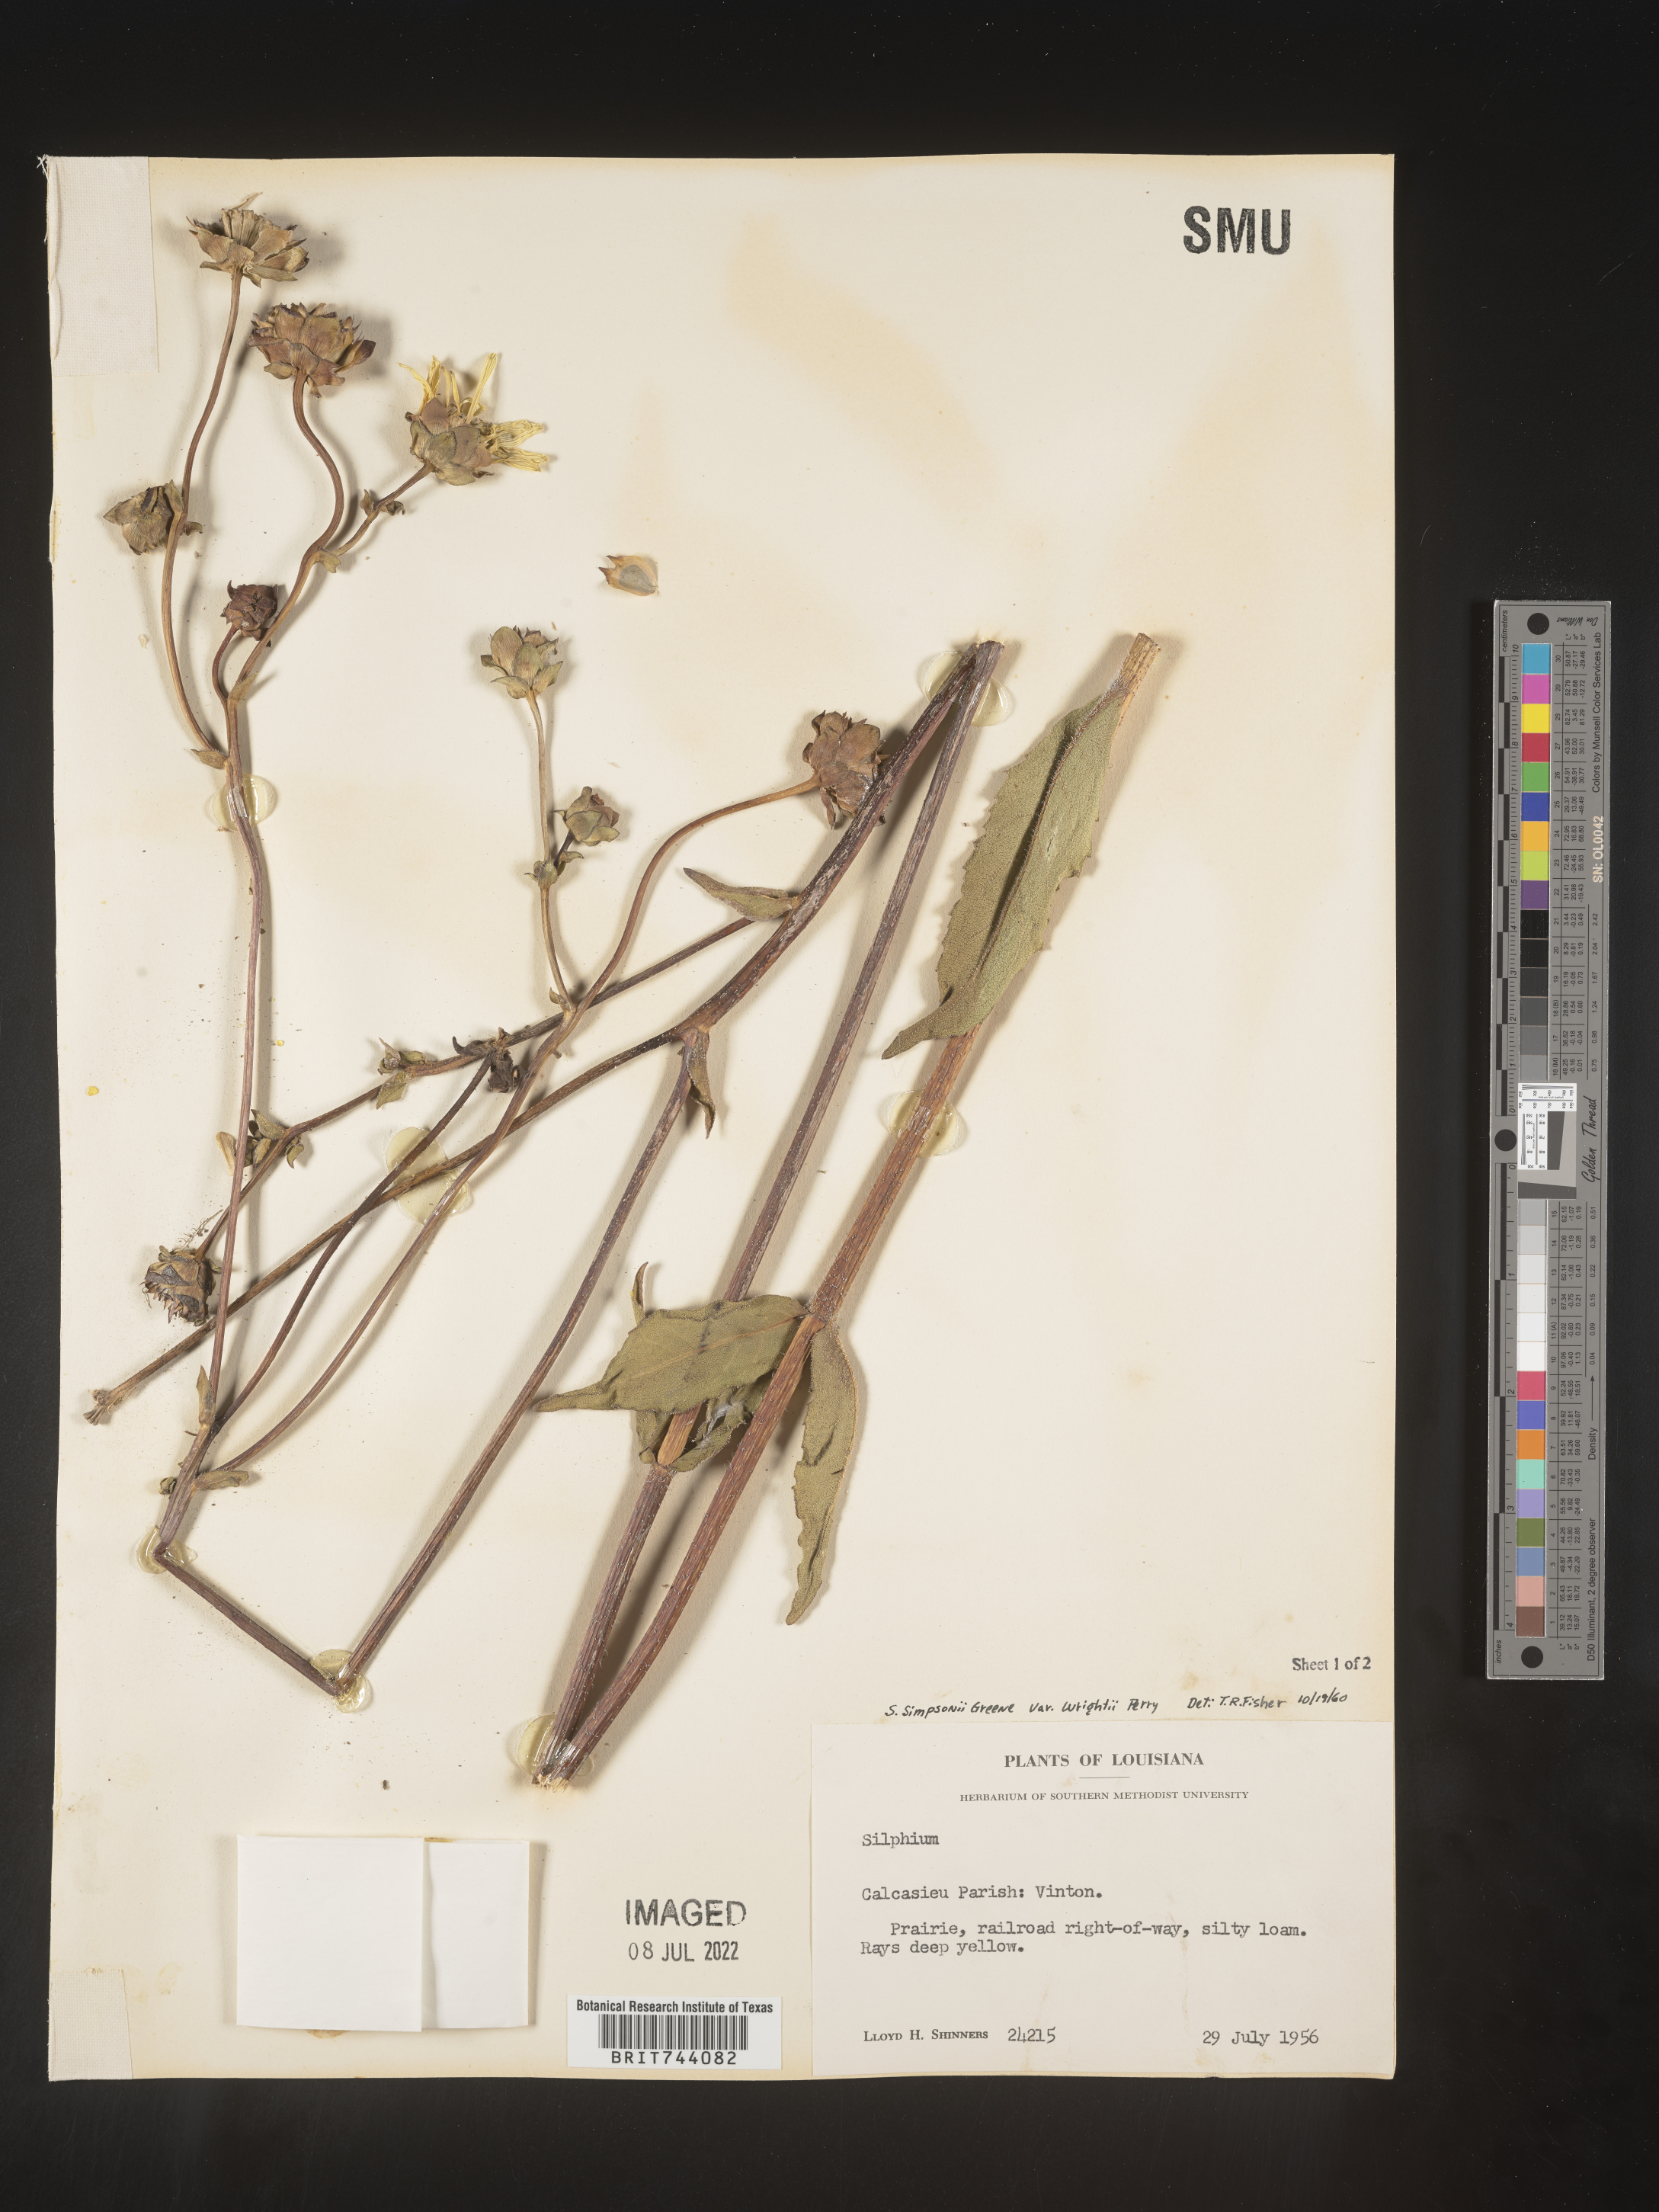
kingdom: Plantae
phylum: Tracheophyta
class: Magnoliopsida
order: Asterales
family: Asteraceae
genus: Silphium
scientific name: Silphium radula
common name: Roughleaf rosinweed
